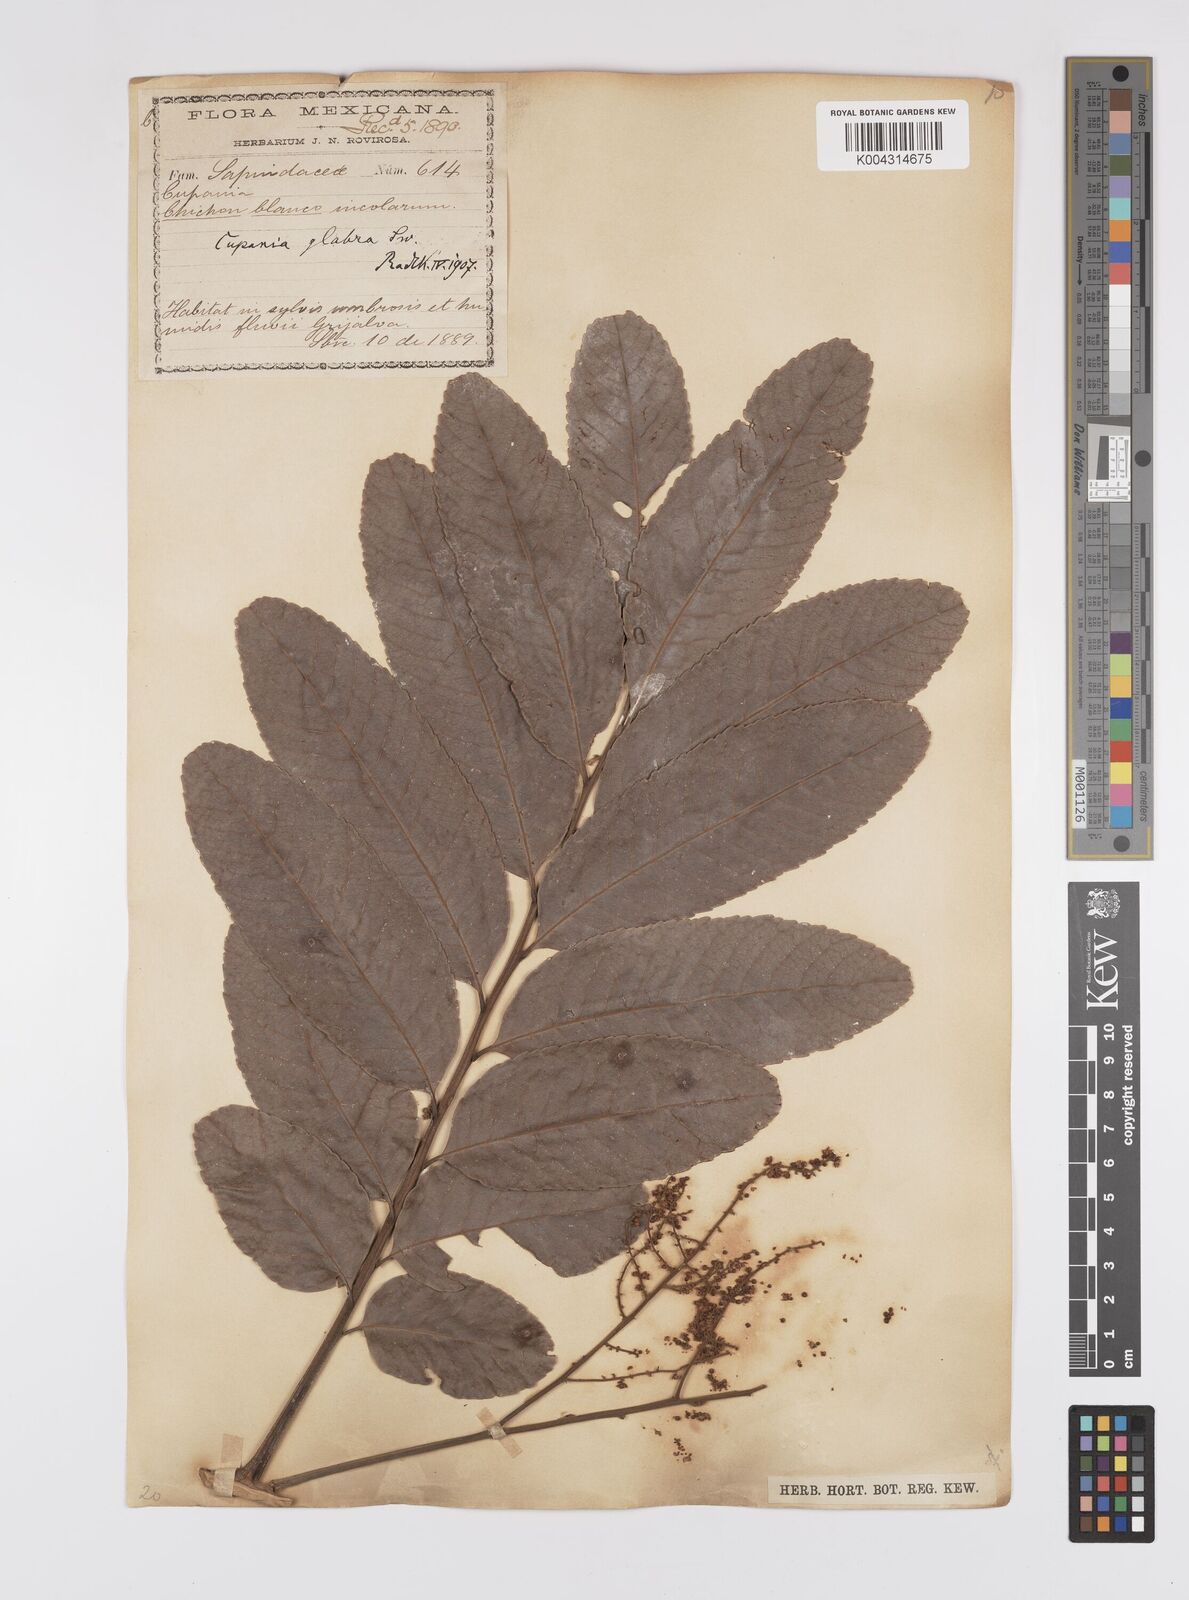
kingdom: Plantae
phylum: Tracheophyta
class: Magnoliopsida
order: Sapindales
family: Sapindaceae
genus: Cupania
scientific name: Cupania
